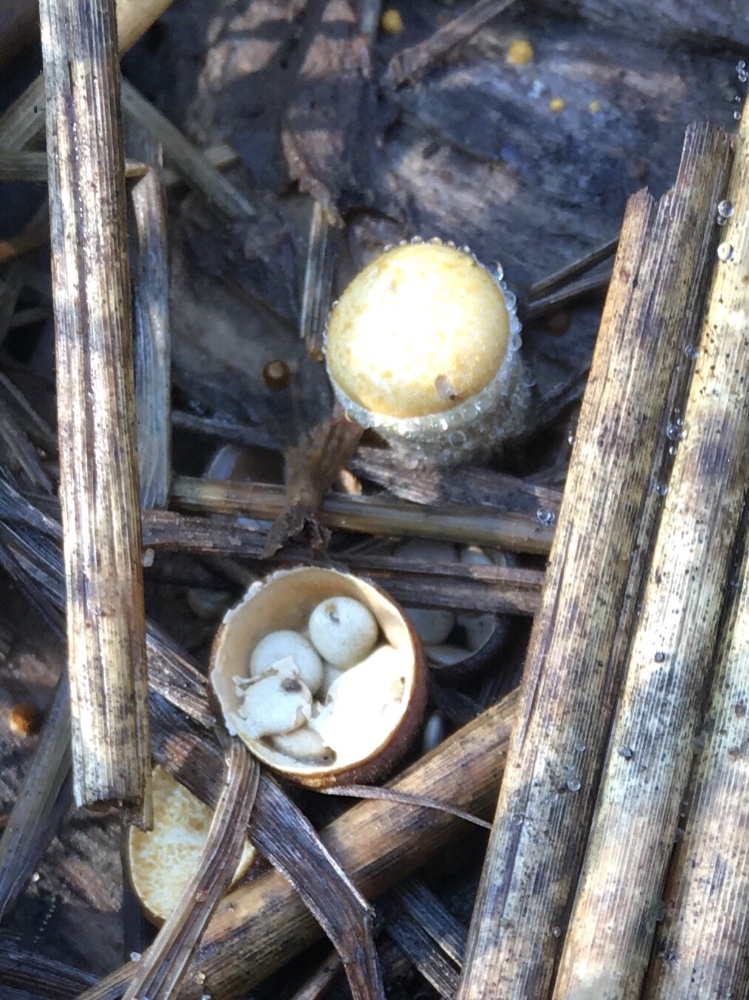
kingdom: Fungi
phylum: Basidiomycota
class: Agaricomycetes
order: Agaricales
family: Nidulariaceae
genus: Crucibulum
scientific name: Crucibulum crucibuliforme
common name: krukkesvamp
